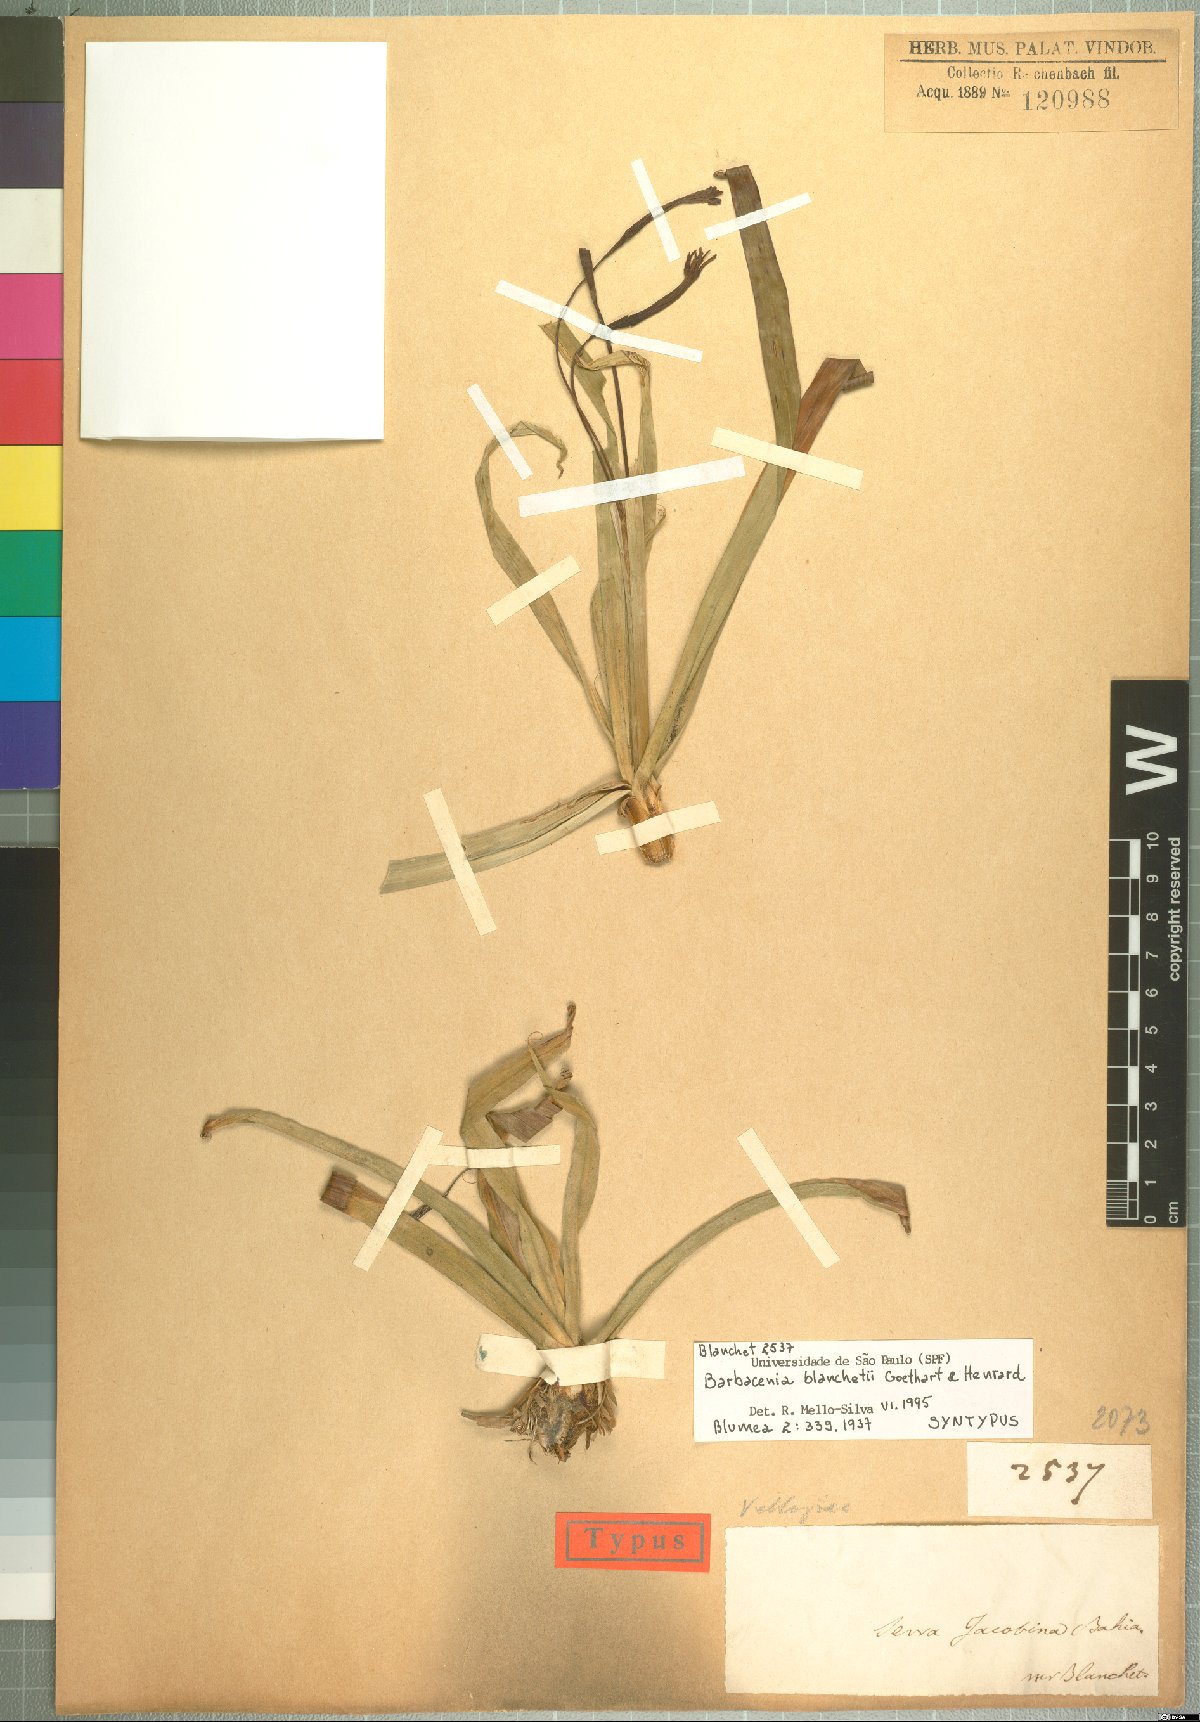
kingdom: Plantae
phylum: Tracheophyta
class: Liliopsida
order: Pandanales
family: Velloziaceae
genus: Barbacenia
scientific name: Barbacenia blanchetii
